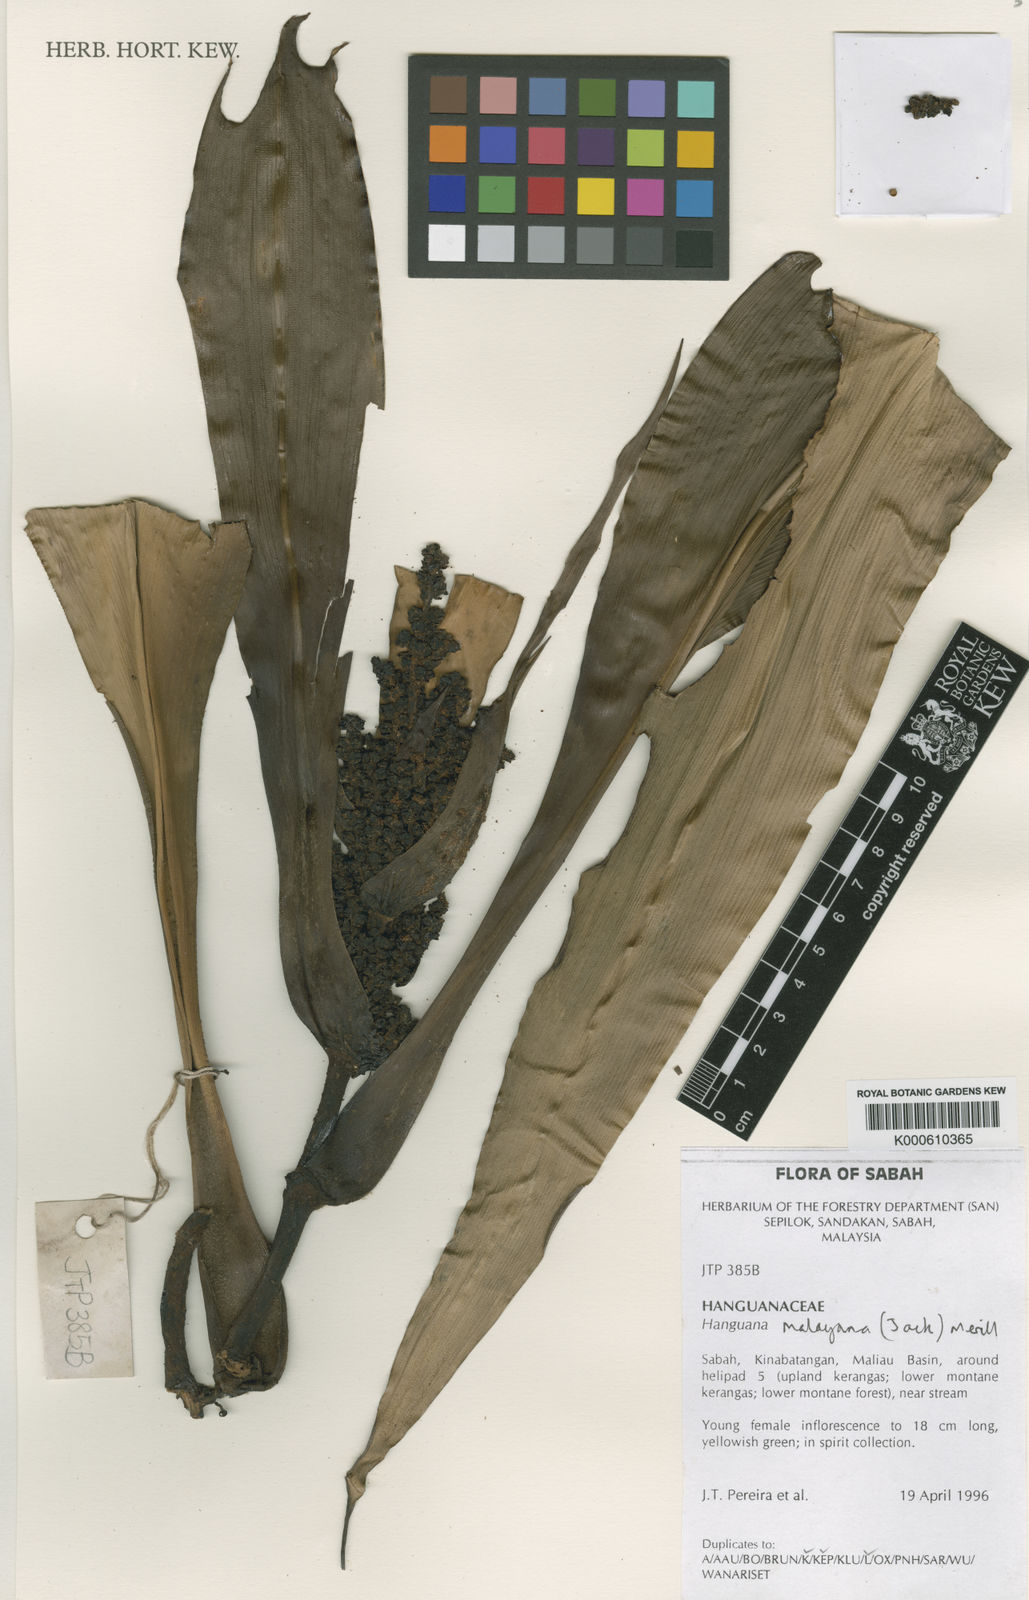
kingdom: Plantae
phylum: Tracheophyta
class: Liliopsida
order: Commelinales
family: Hanguanaceae
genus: Hanguana
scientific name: Hanguana malayana
